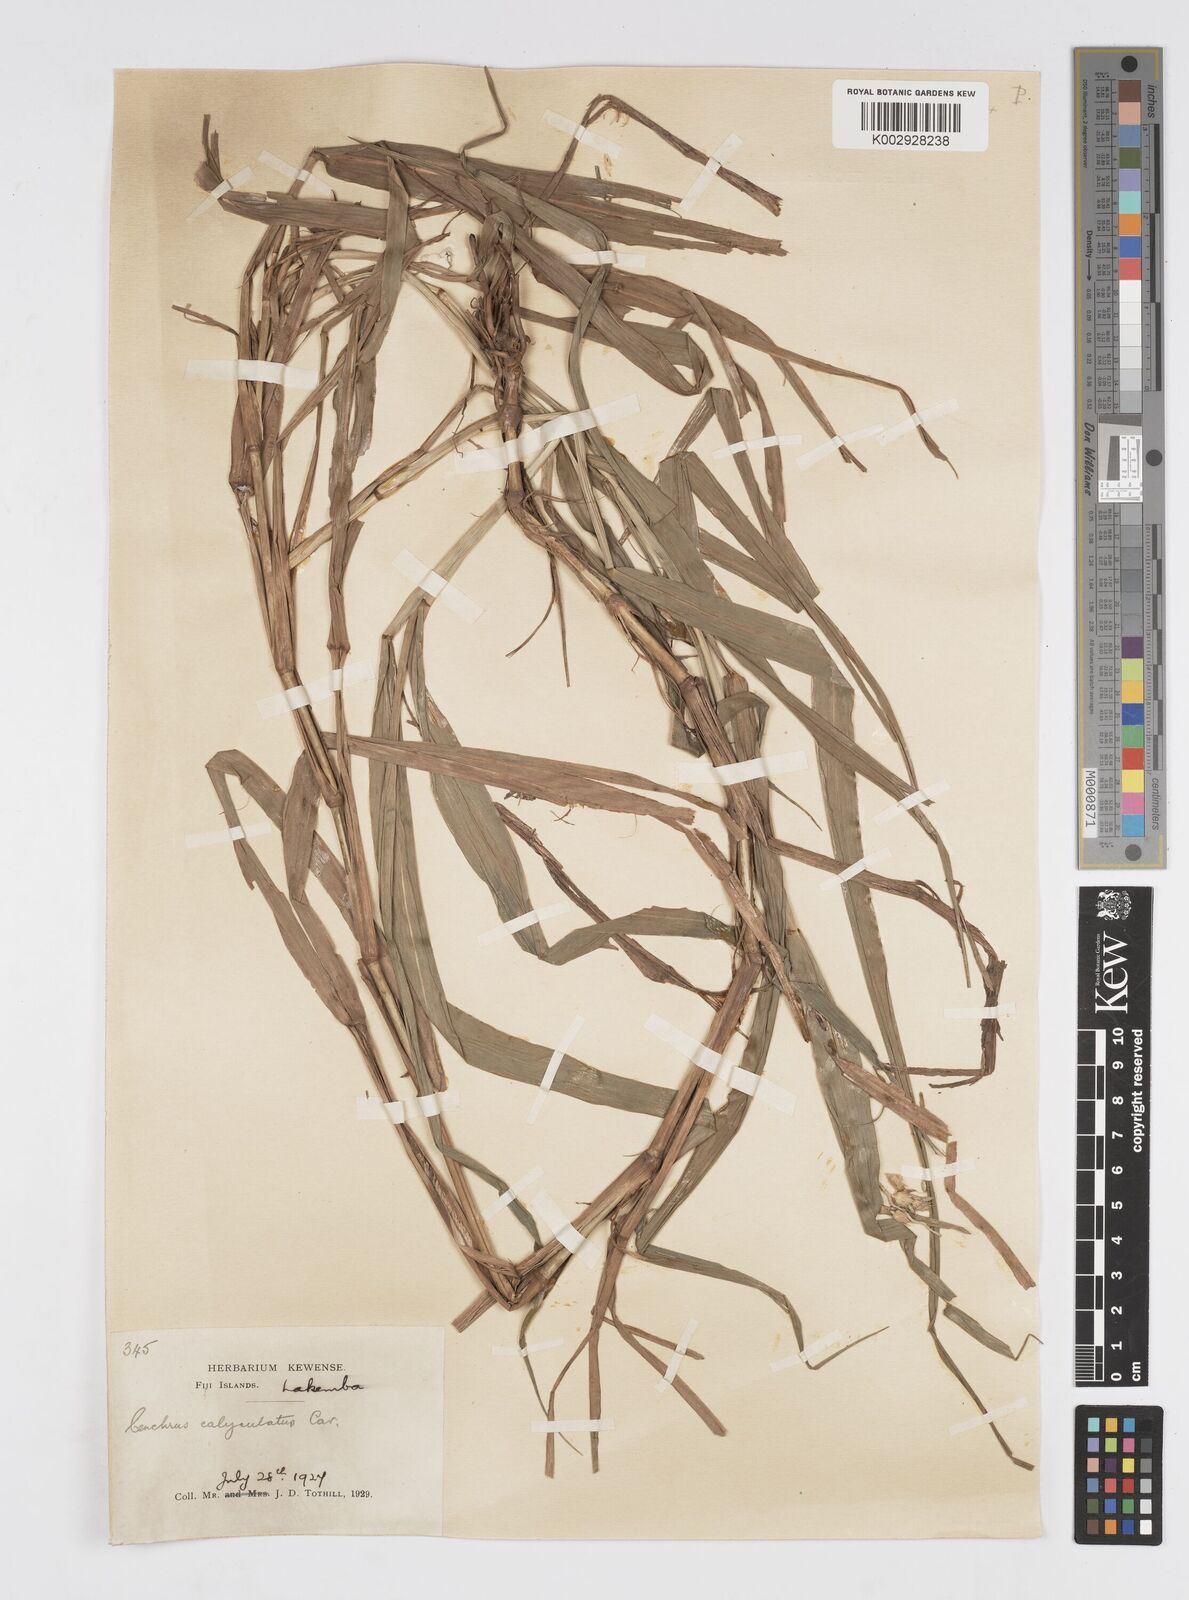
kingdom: Plantae
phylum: Tracheophyta
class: Liliopsida
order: Poales
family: Poaceae
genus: Cenchrus
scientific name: Cenchrus caliculatus
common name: Large bur grass
